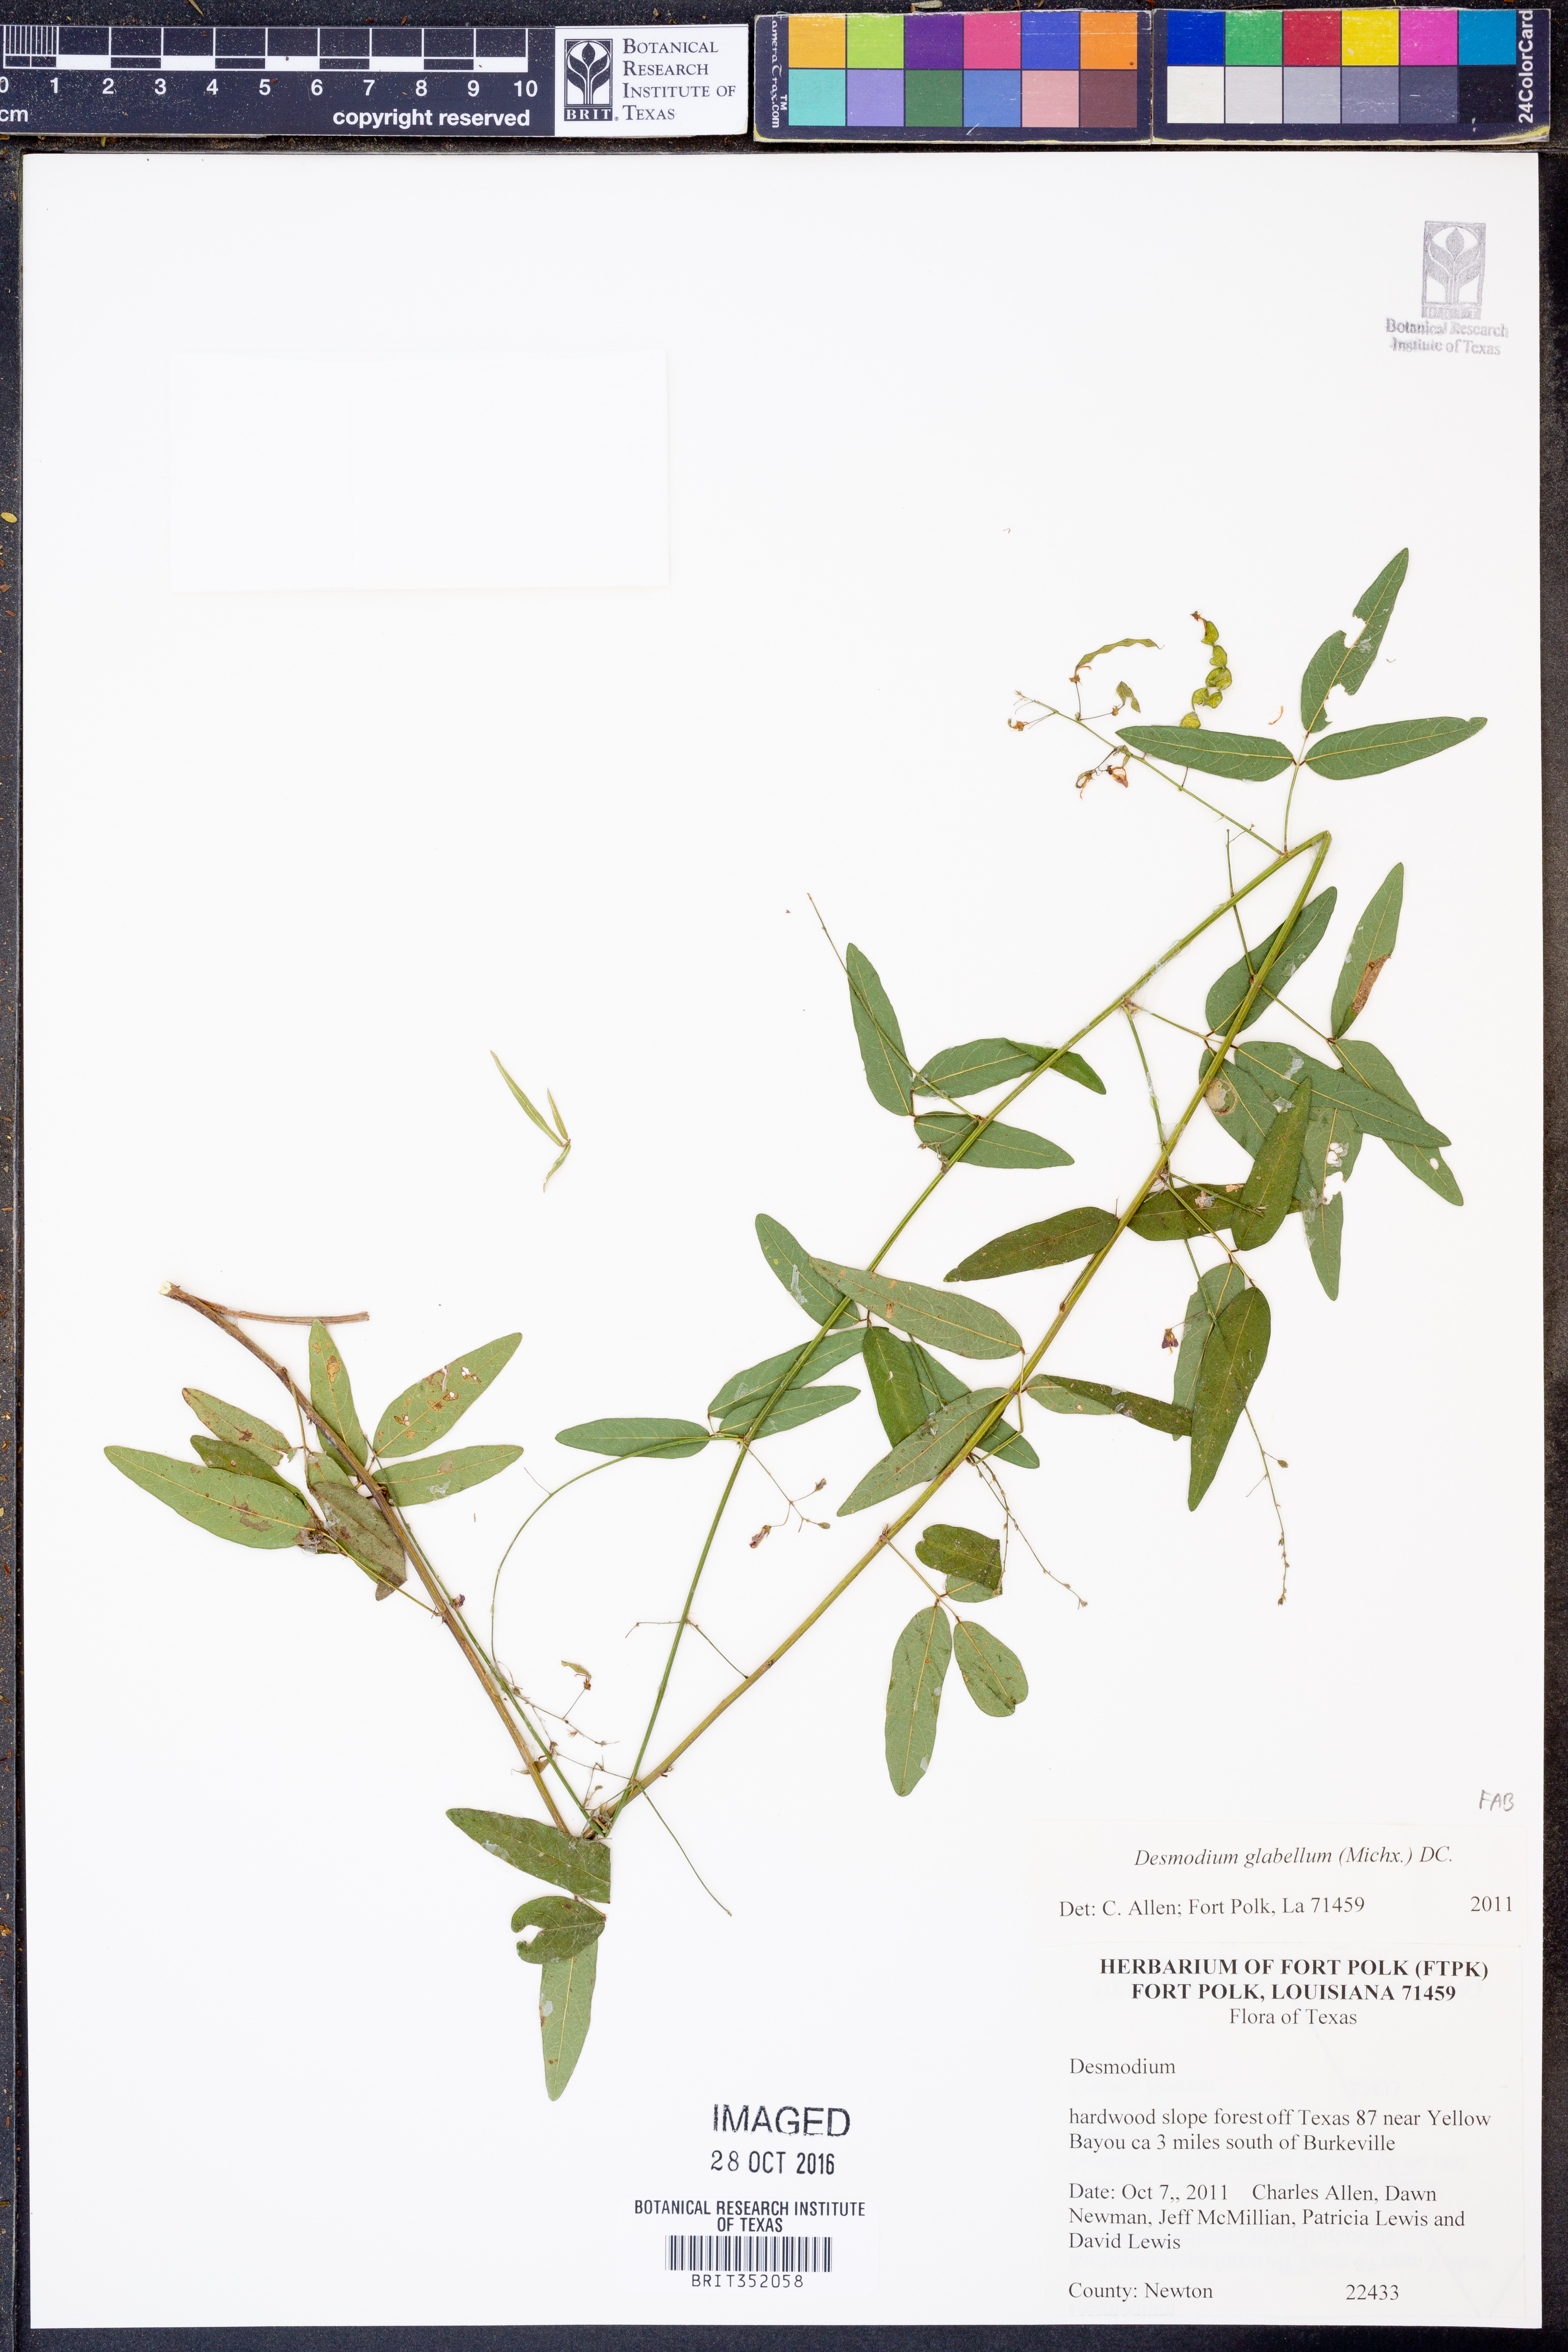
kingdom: Plantae
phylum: Tracheophyta
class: Magnoliopsida
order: Fabales
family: Fabaceae
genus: Desmodium
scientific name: Desmodium glabellum
